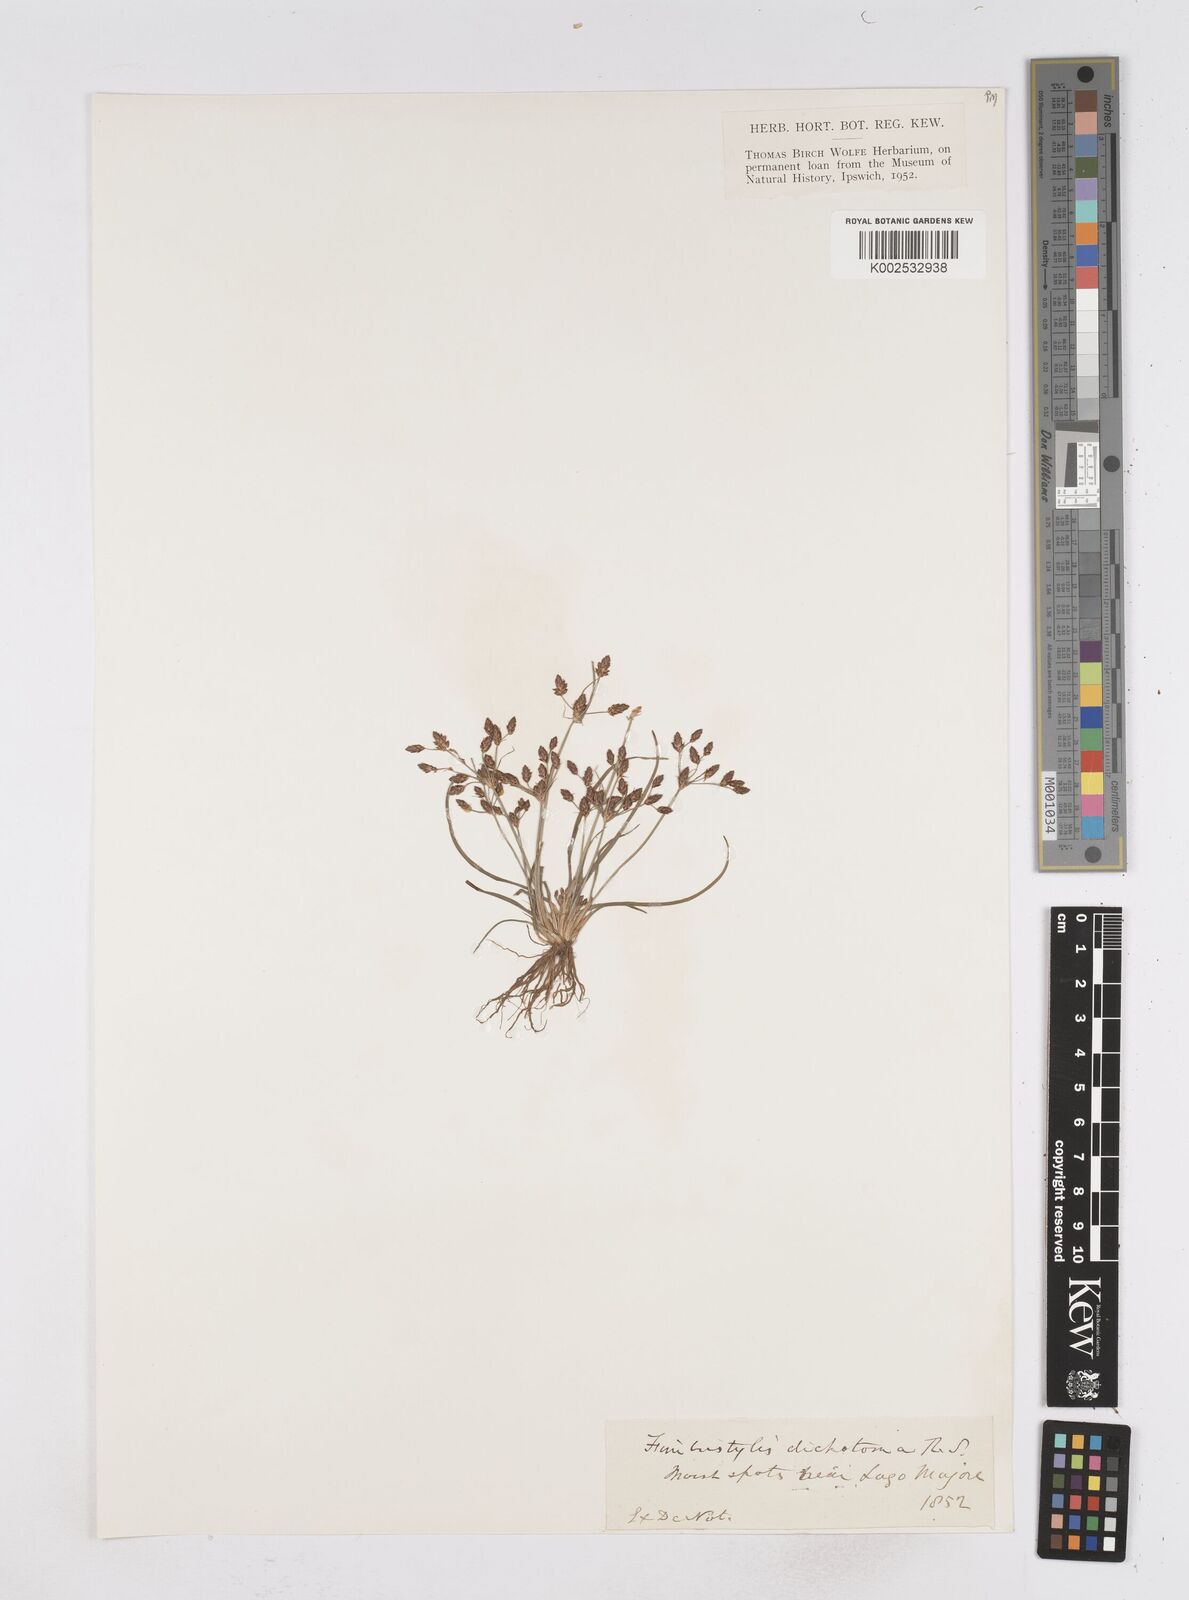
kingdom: Plantae
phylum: Tracheophyta
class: Liliopsida
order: Poales
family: Cyperaceae
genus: Fimbristylis
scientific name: Fimbristylis dichotoma
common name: Forked fimbry
